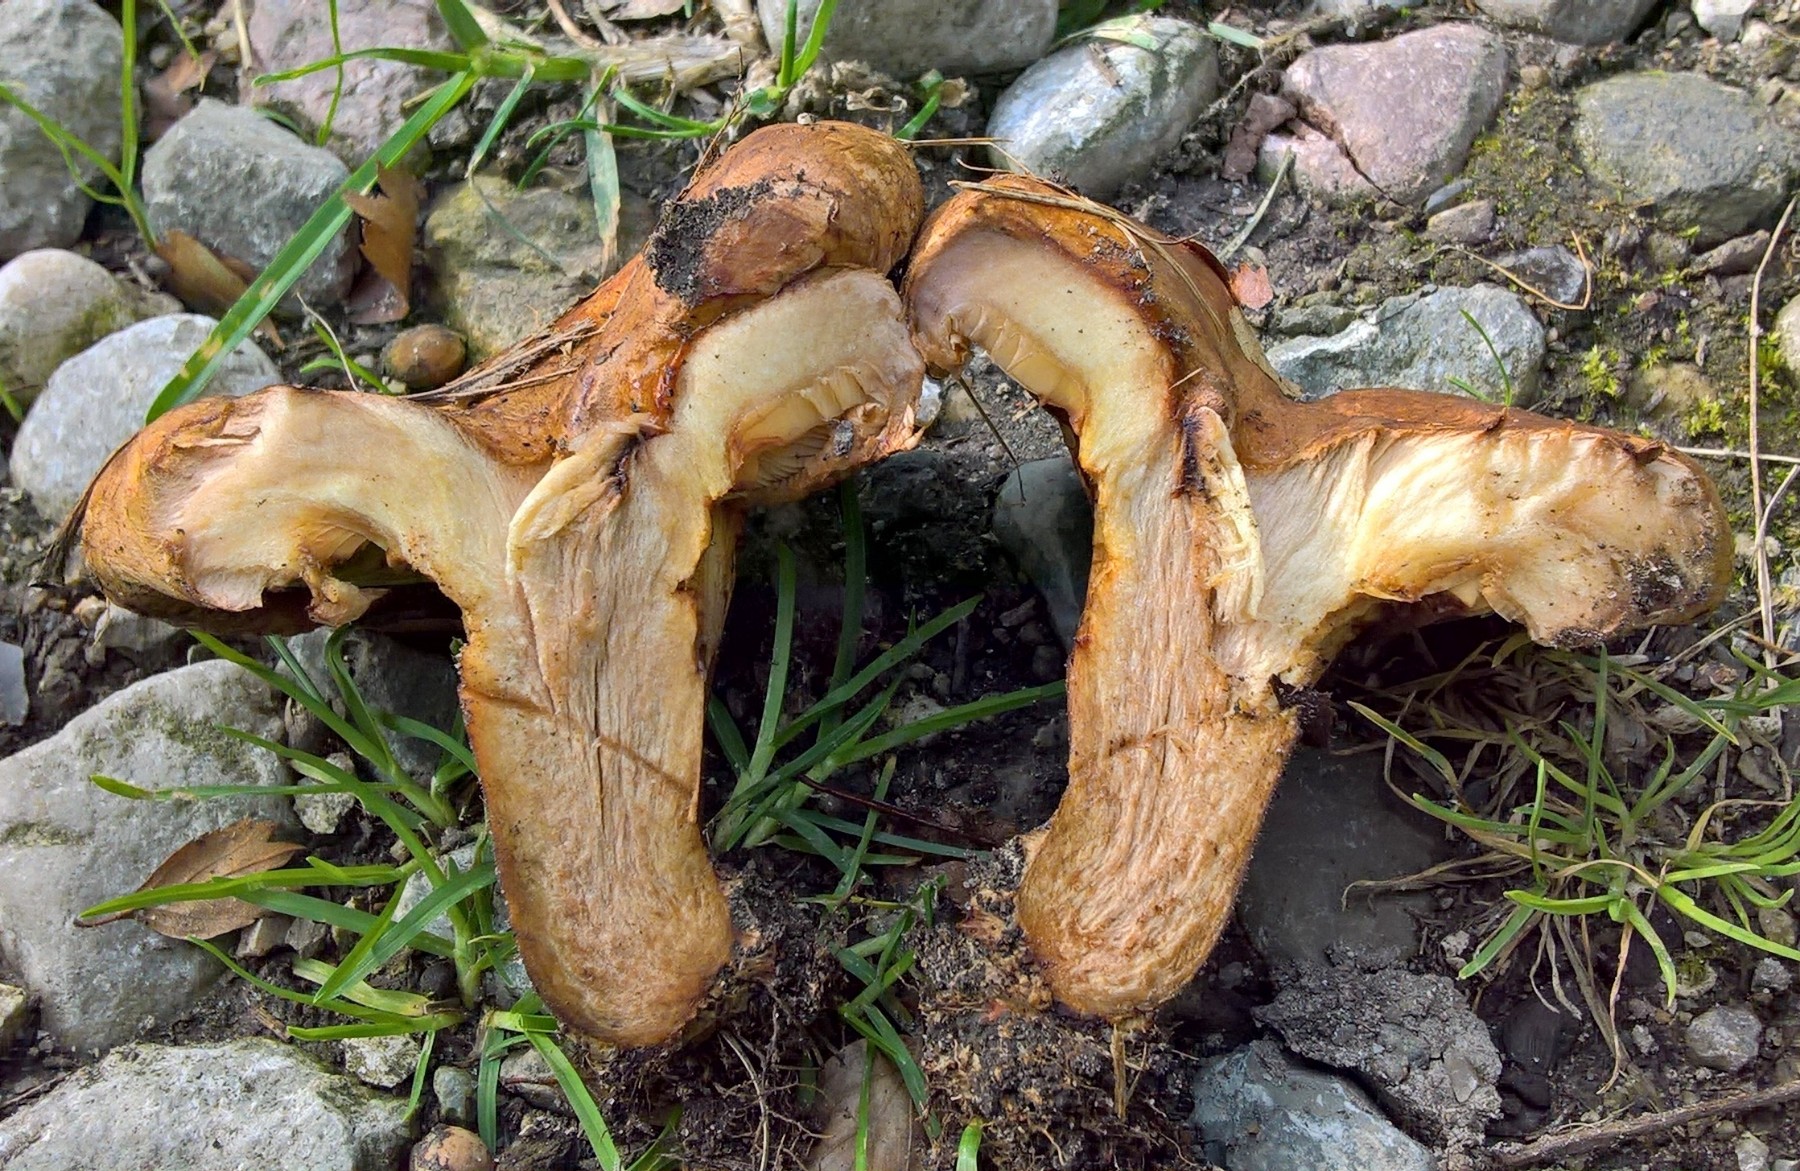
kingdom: Fungi
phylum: Basidiomycota
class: Agaricomycetes
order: Boletales
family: Paxillaceae
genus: Paxillus
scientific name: Paxillus
